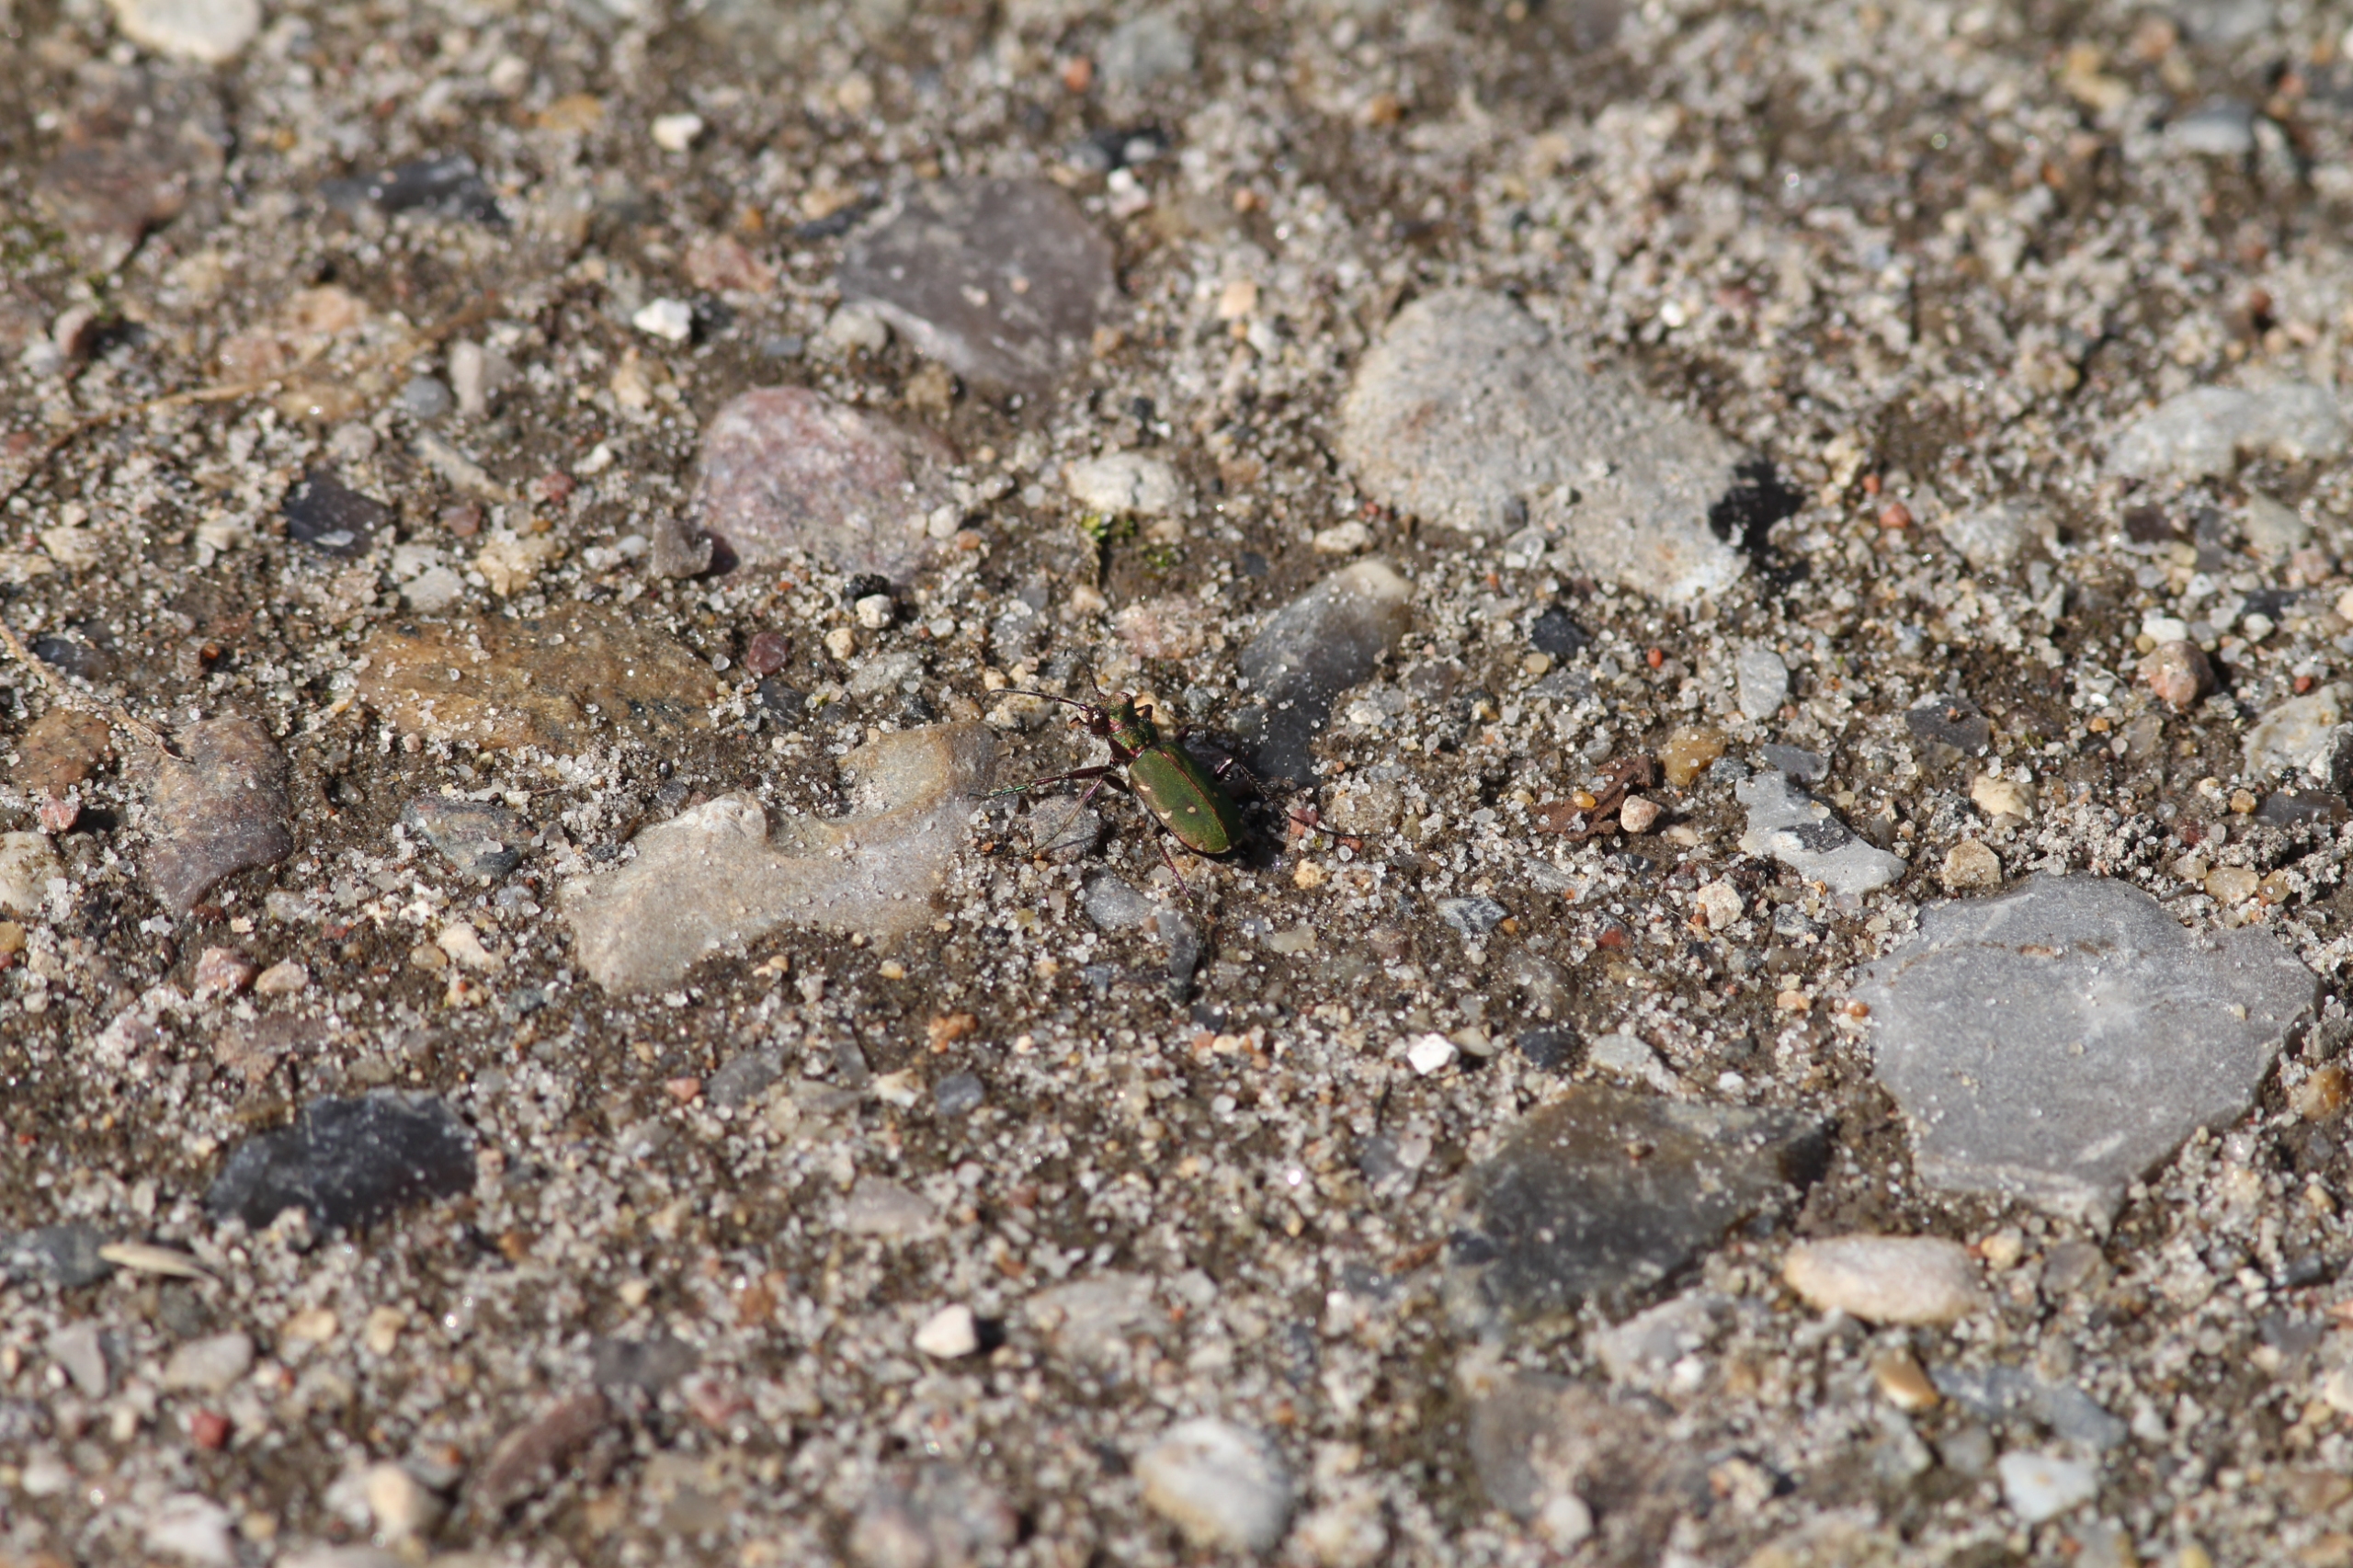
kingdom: Animalia
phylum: Arthropoda
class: Insecta
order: Coleoptera
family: Carabidae
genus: Cicindela
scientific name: Cicindela campestris
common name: Grøn sandspringer
